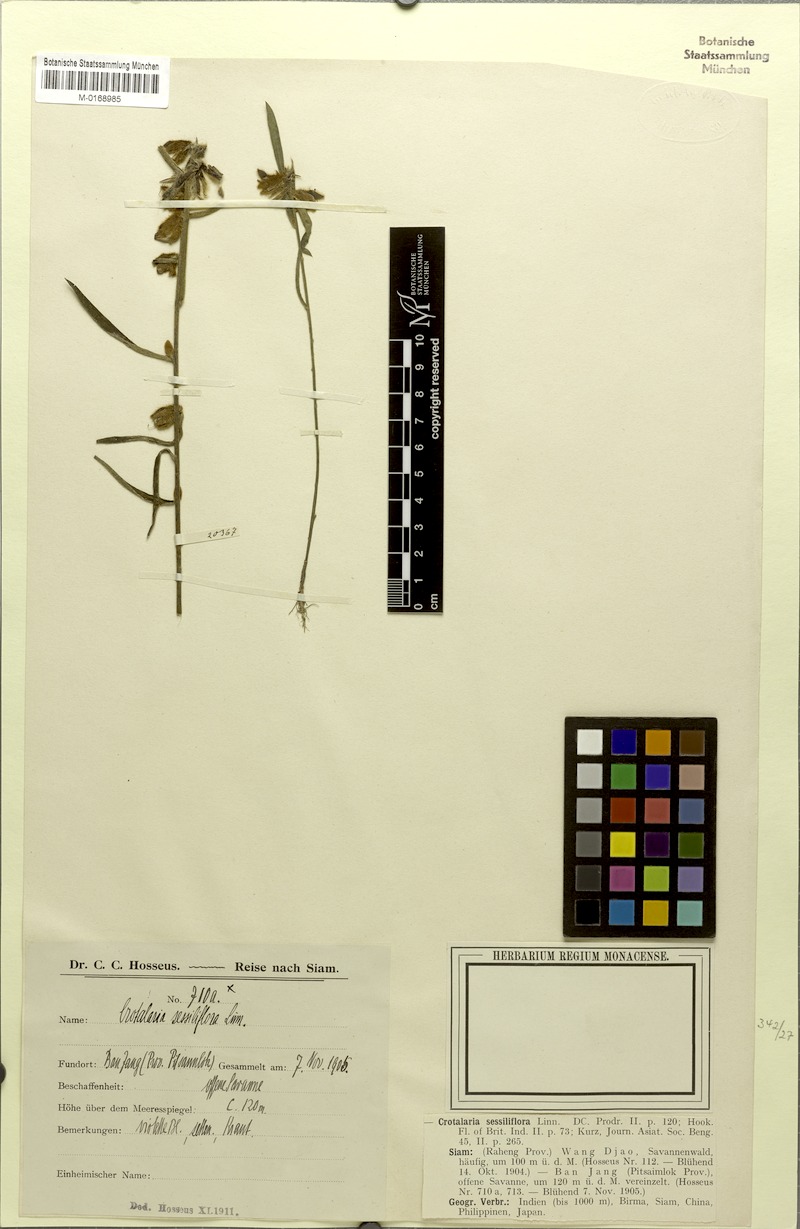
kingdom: Plantae
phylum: Tracheophyta
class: Magnoliopsida
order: Fabales
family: Fabaceae
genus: Crotalaria
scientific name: Crotalaria sessiliflora
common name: Rattlebox
